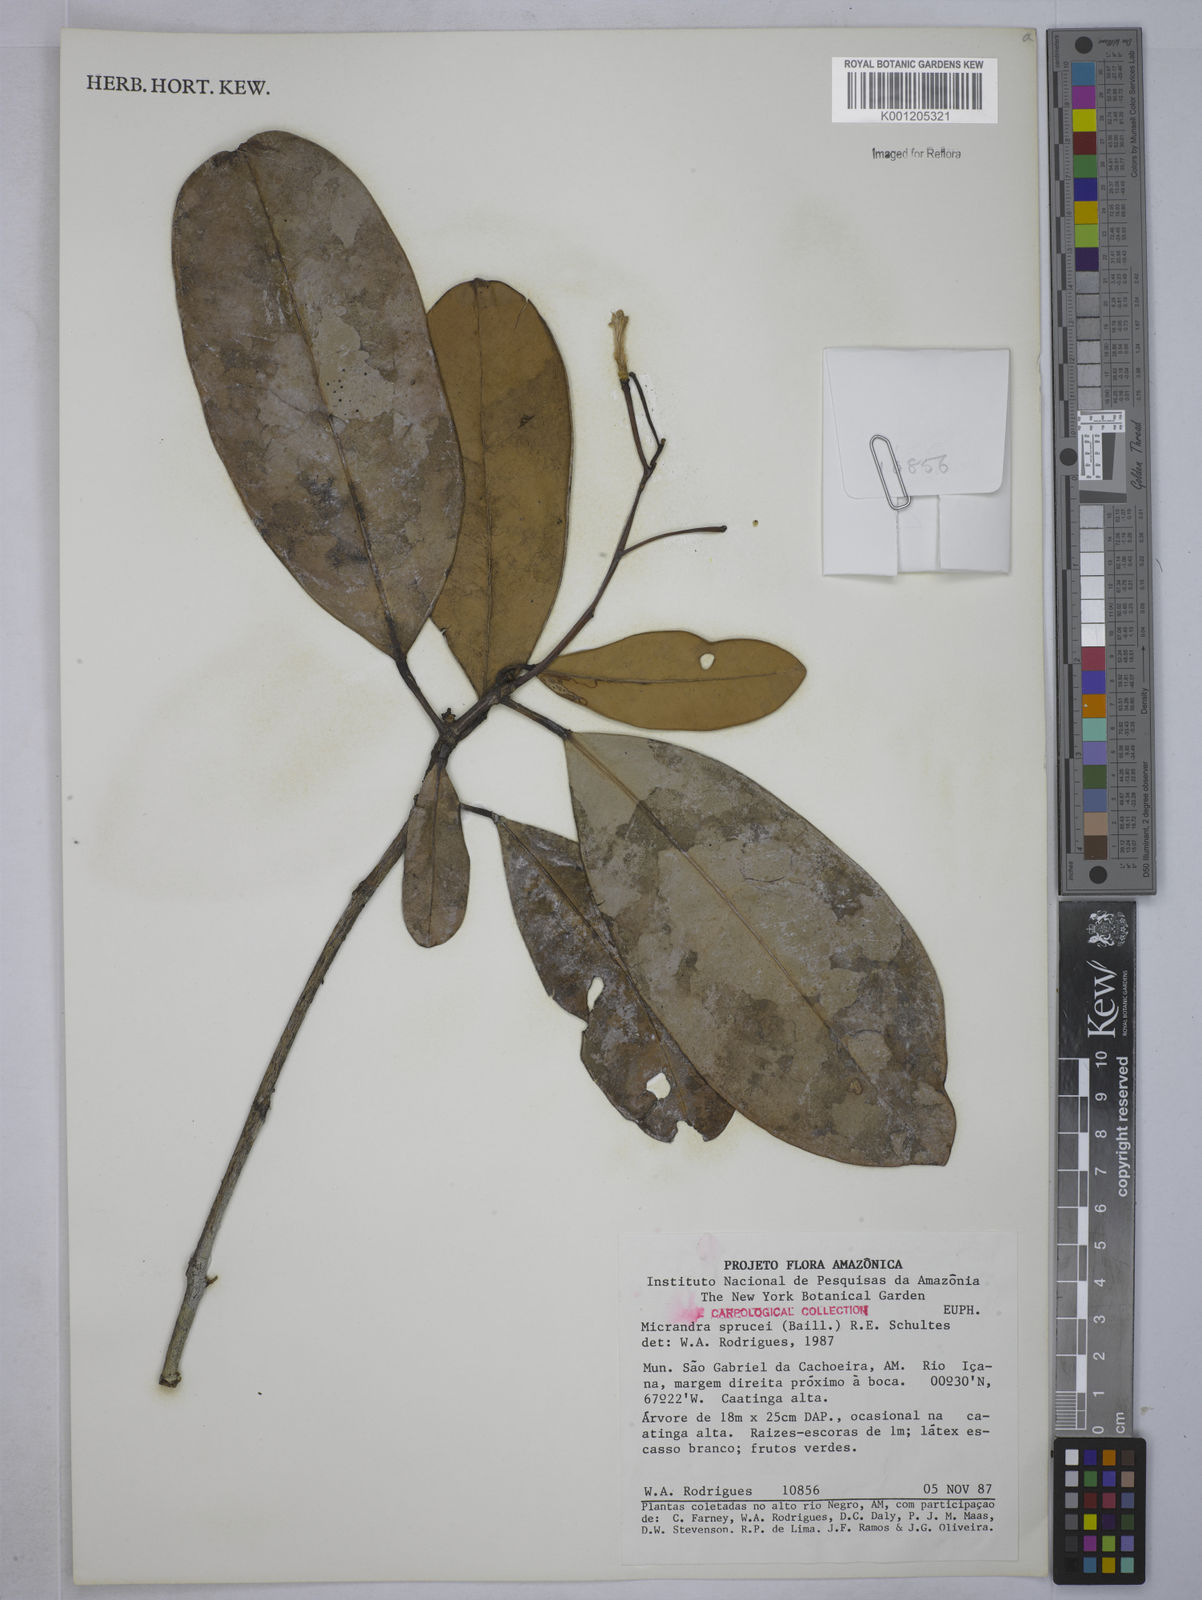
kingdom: Plantae
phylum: Tracheophyta
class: Magnoliopsida
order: Malpighiales
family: Euphorbiaceae
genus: Micrandra
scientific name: Micrandra spruceana
